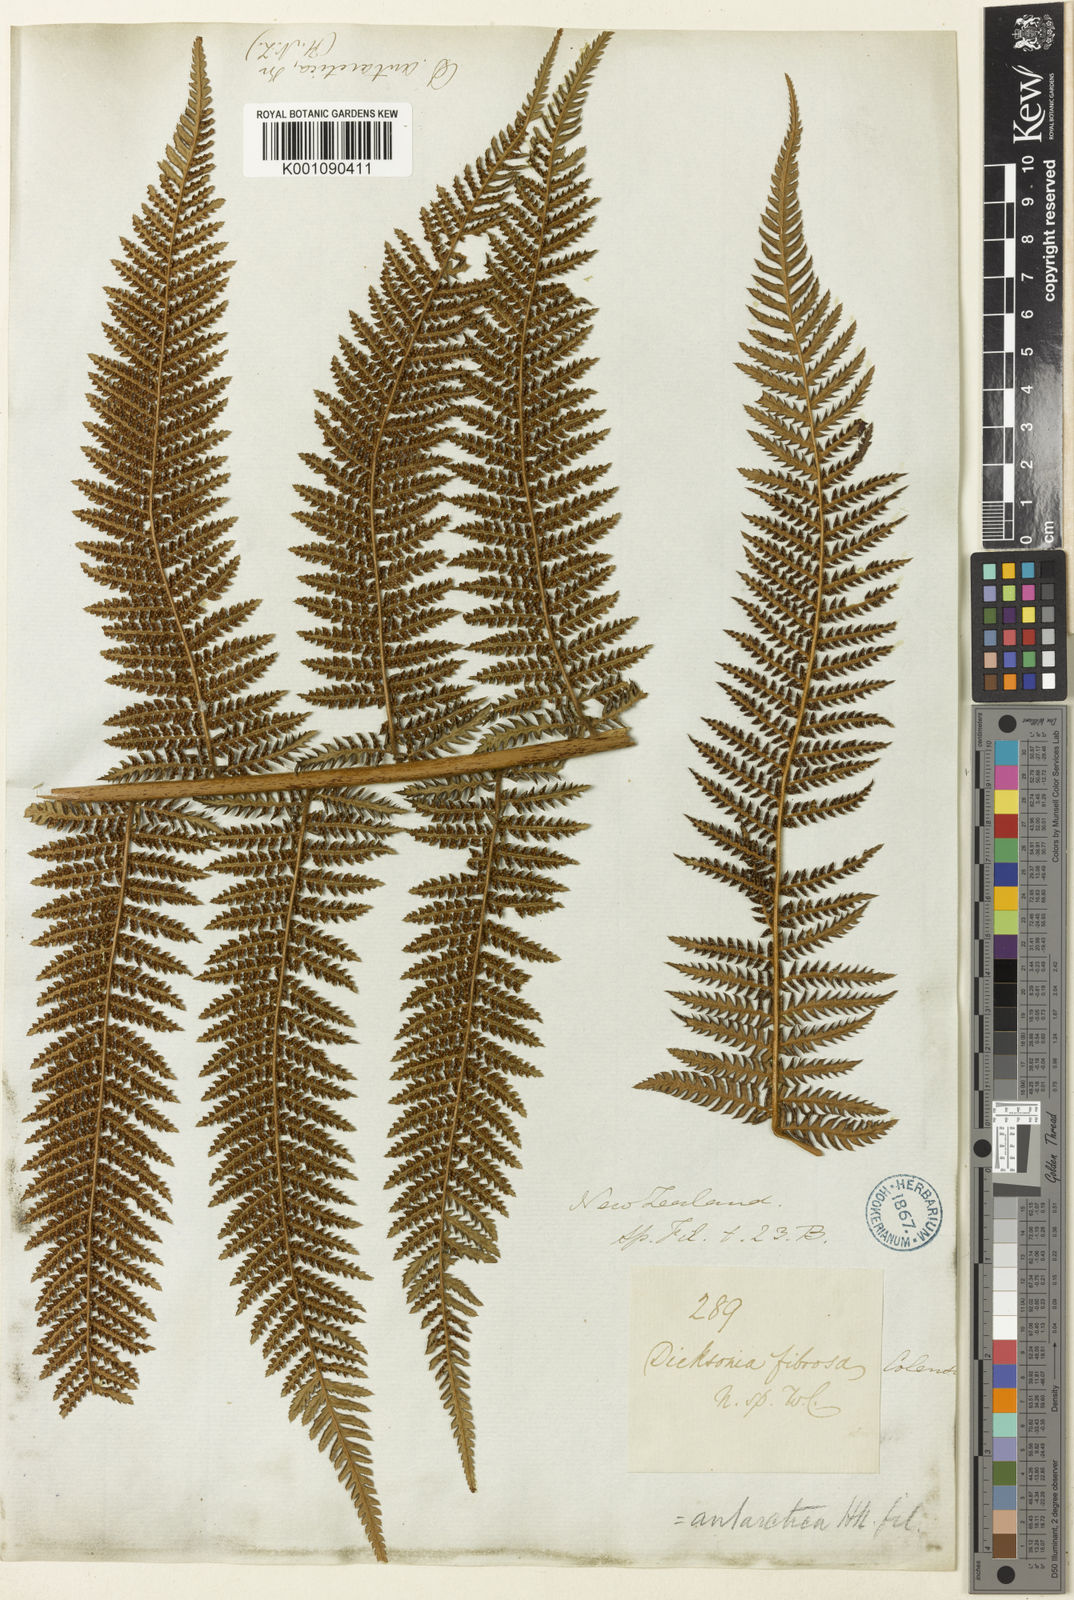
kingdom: Plantae
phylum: Tracheophyta
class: Polypodiopsida
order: Cyatheales
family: Dicksoniaceae
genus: Dicksonia
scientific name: Dicksonia fibrosa
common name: Golden tree fern
